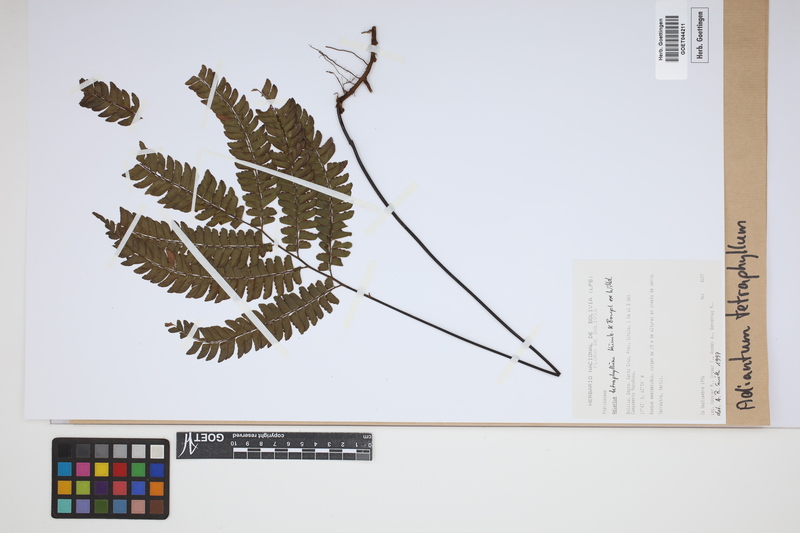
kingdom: Plantae
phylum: Tracheophyta
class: Polypodiopsida
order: Polypodiales
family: Pteridaceae
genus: Adiantum
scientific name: Adiantum tetraphyllum
